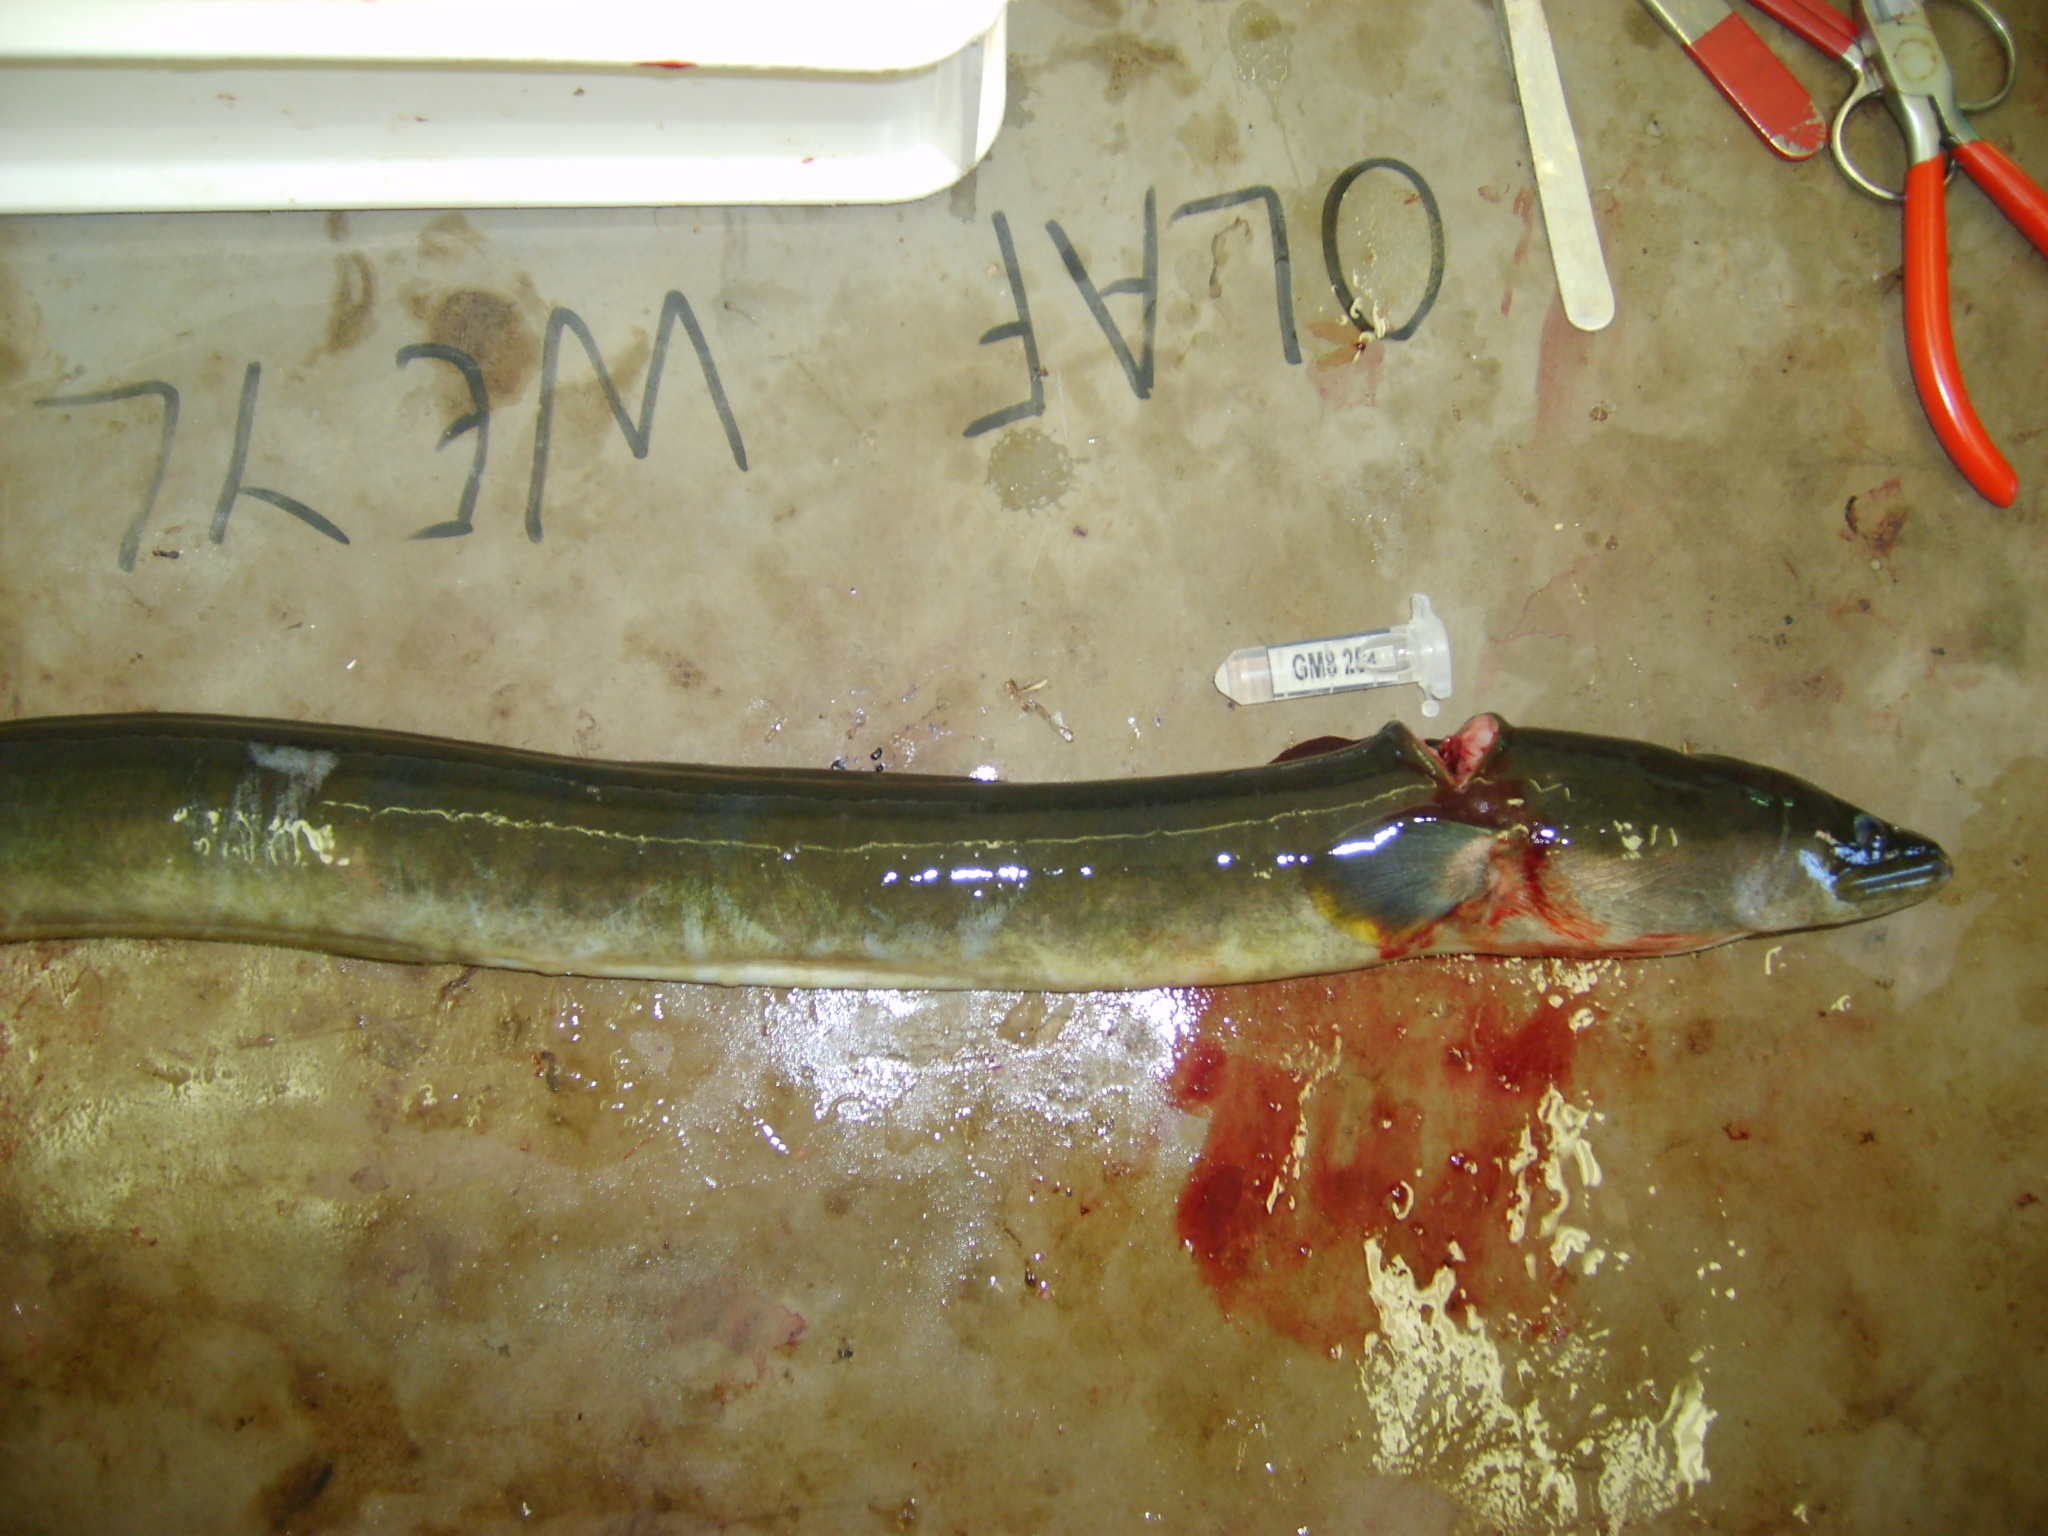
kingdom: Animalia
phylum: Chordata
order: Anguilliformes
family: Anguillidae
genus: Anguilla
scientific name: Anguilla mossambica
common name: African longfin eel
